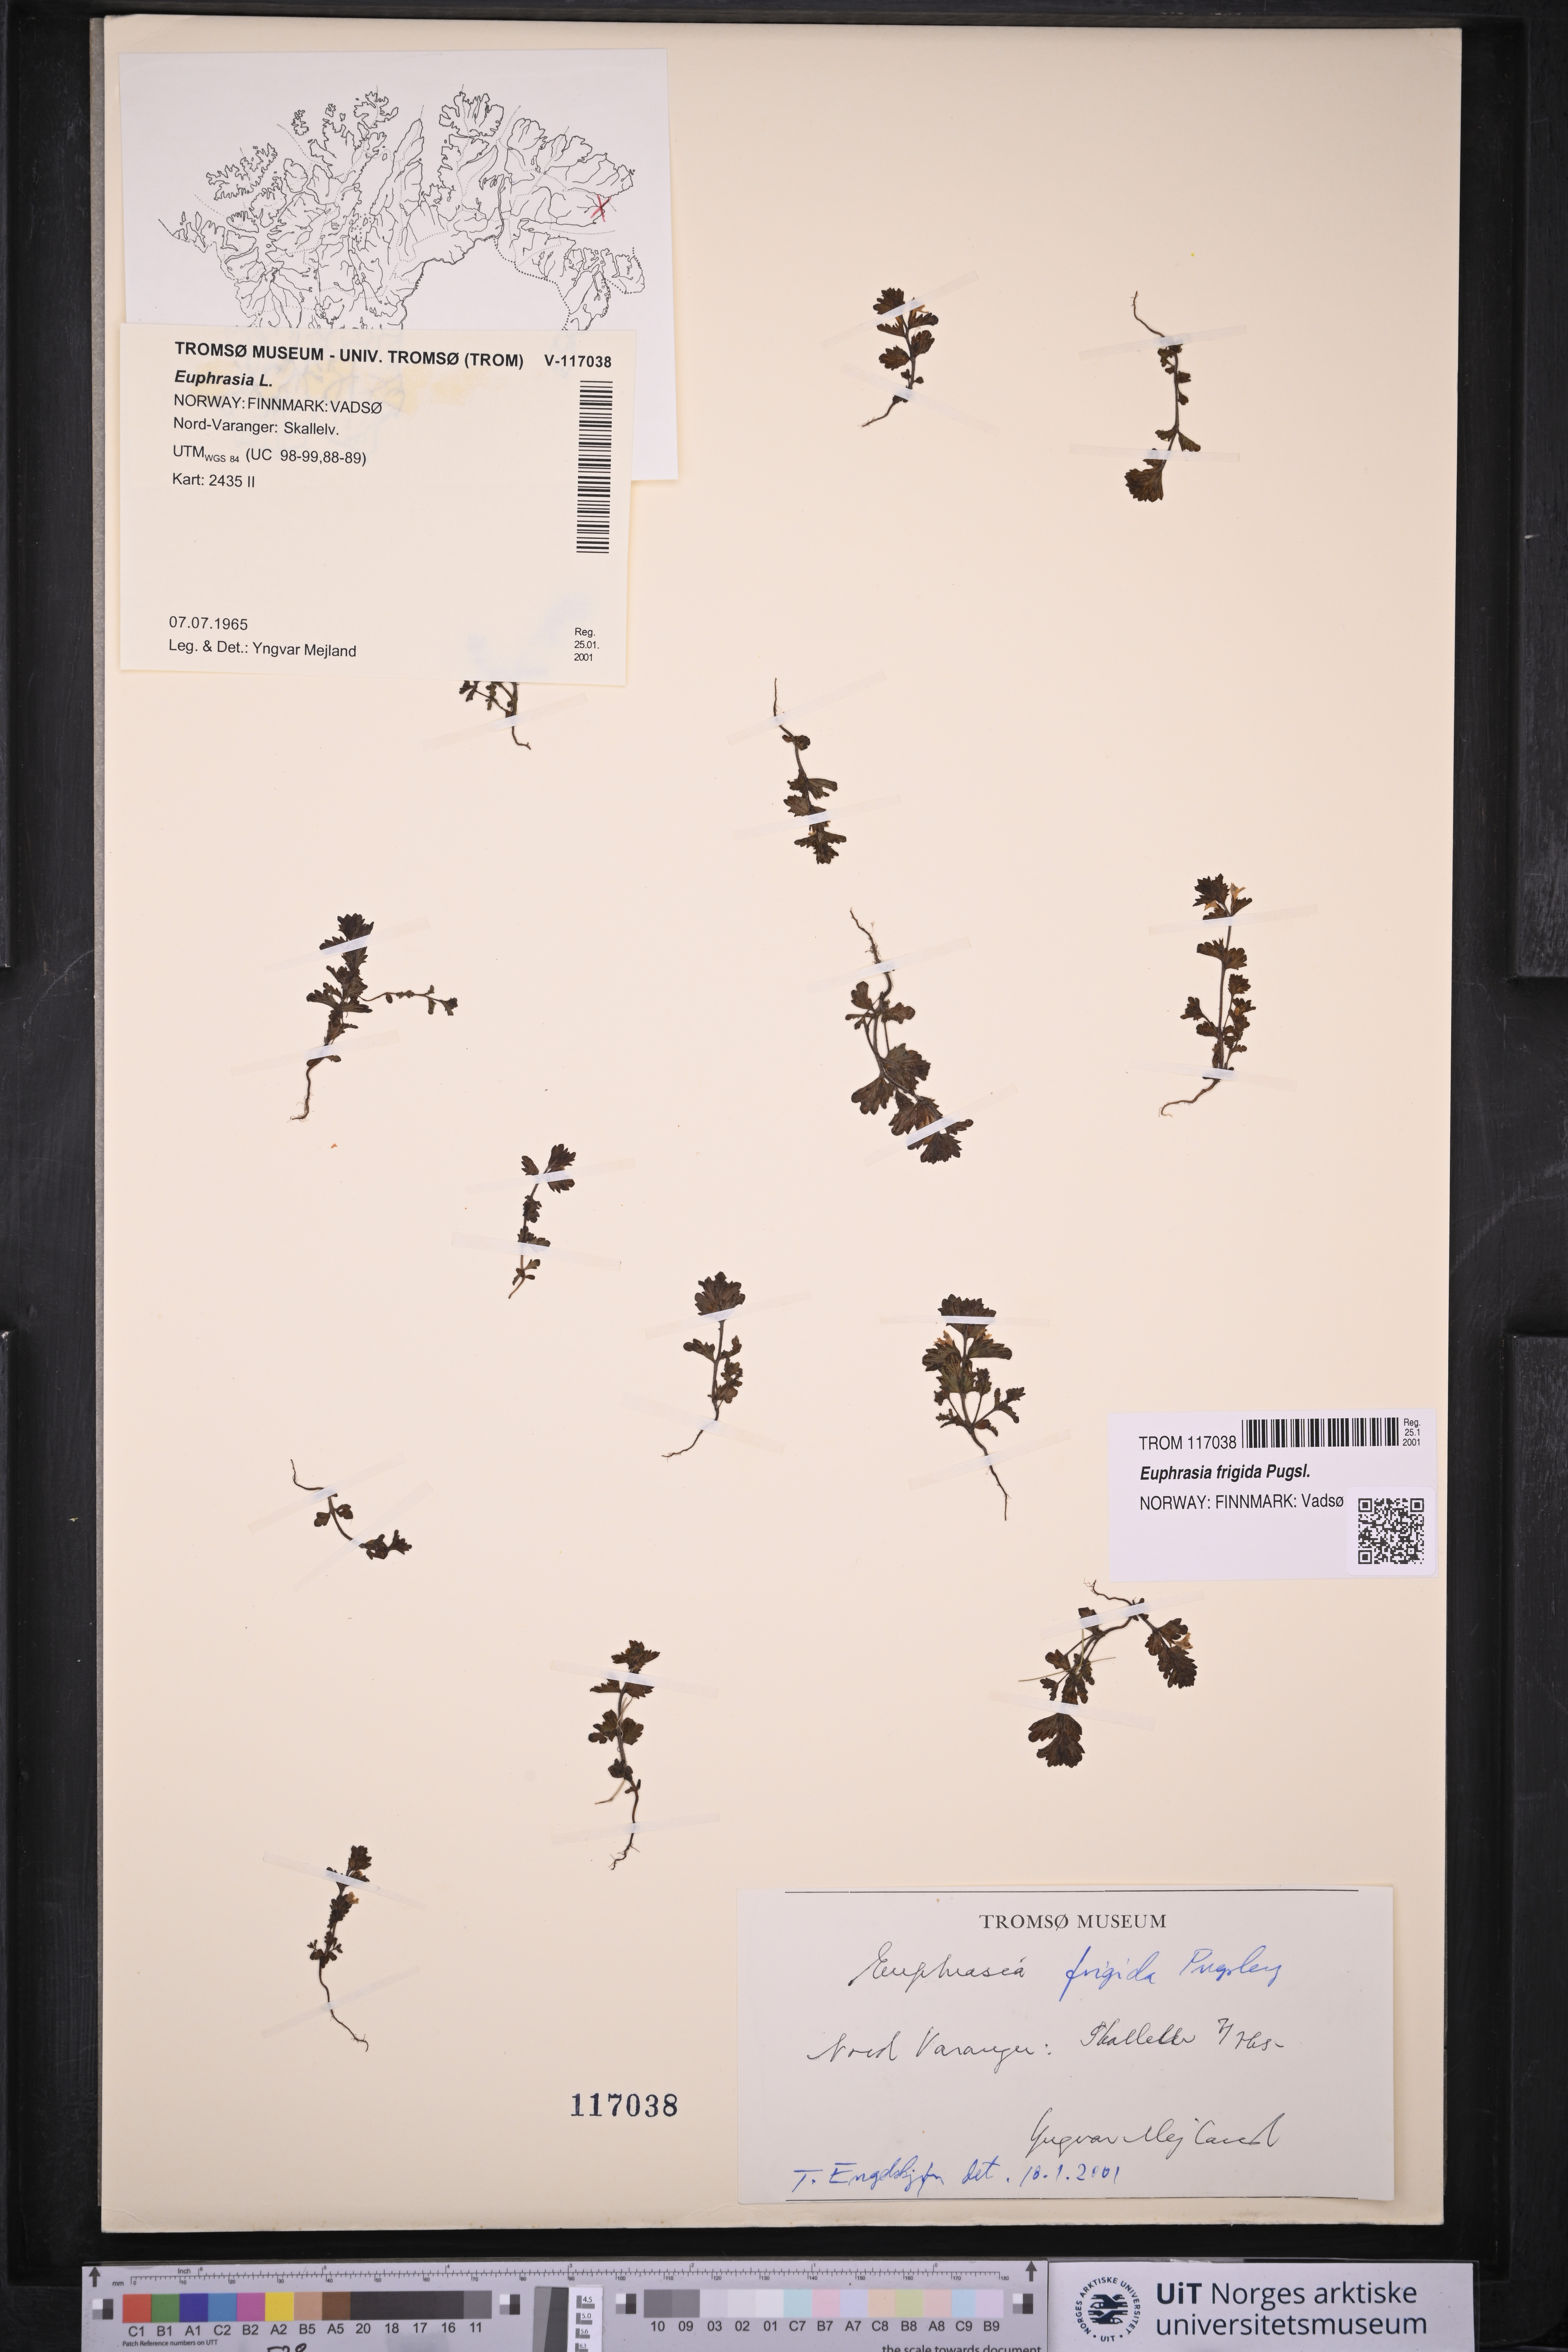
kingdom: Plantae
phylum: Tracheophyta
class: Magnoliopsida
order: Lamiales
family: Orobanchaceae
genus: Euphrasia
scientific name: Euphrasia frigida
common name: An eyebright
